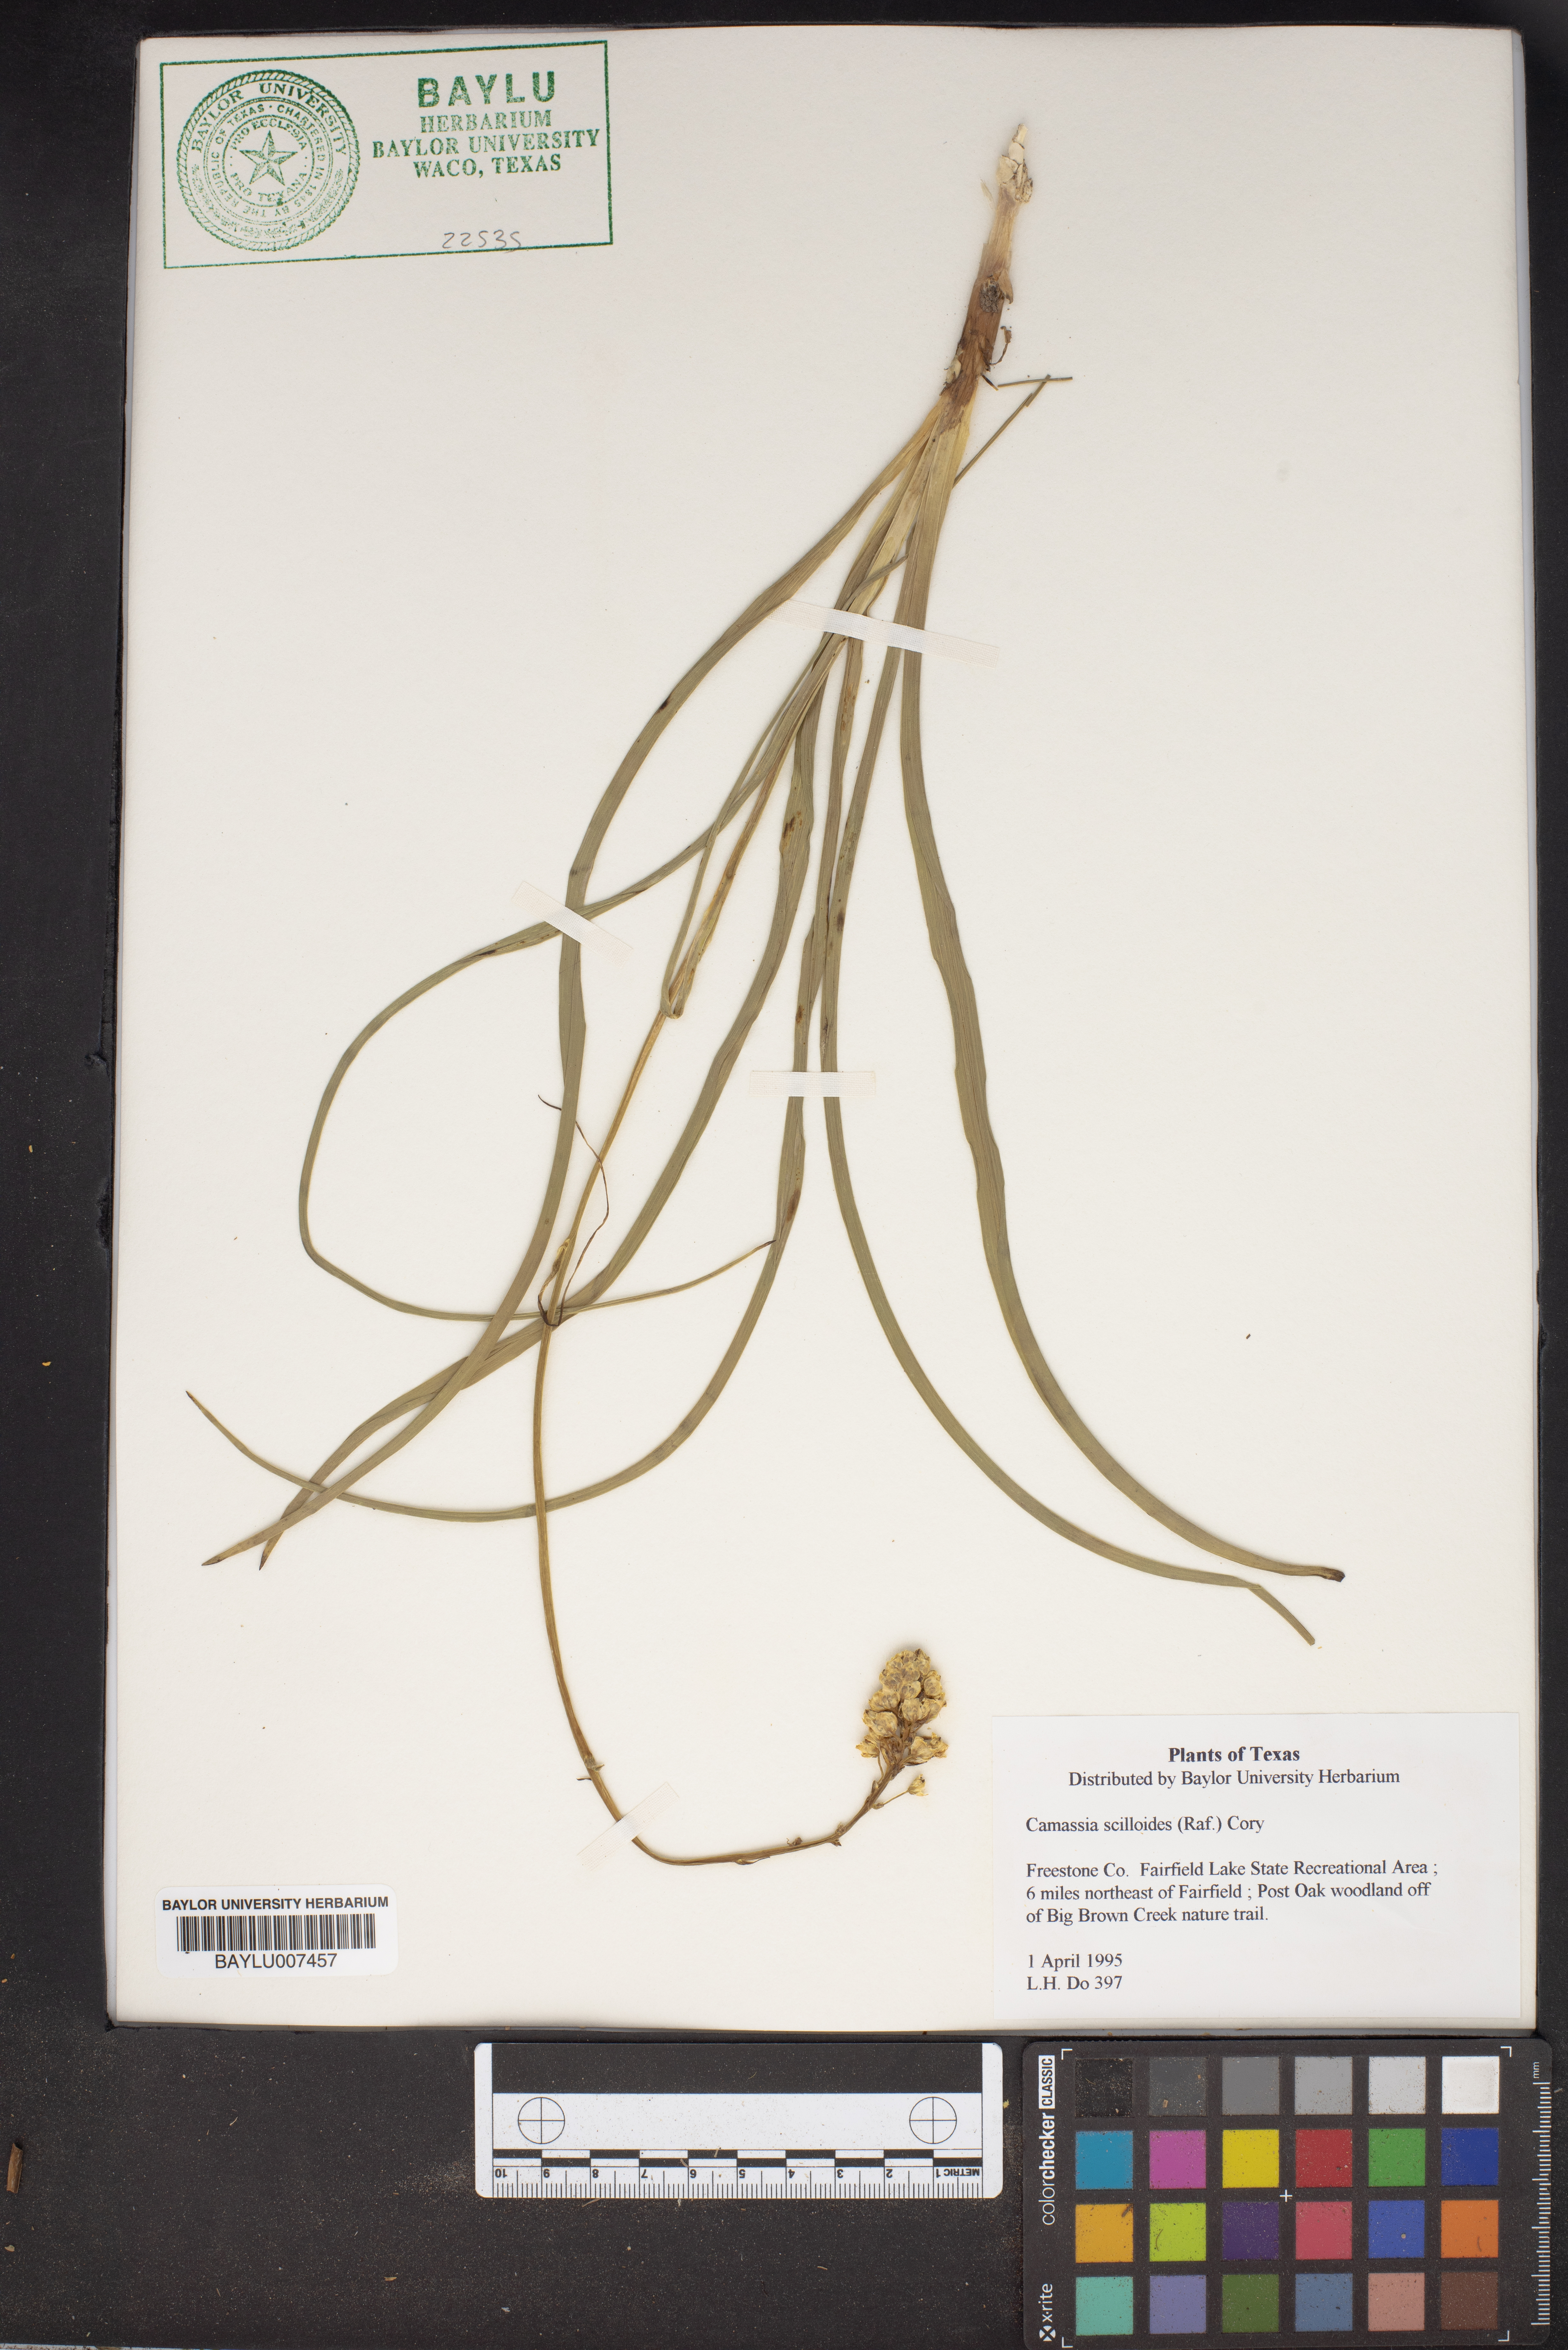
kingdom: Plantae
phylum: Tracheophyta
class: Liliopsida
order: Asparagales
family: Asparagaceae
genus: Camassia
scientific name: Camassia scilloides
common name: Wild hyacinth
